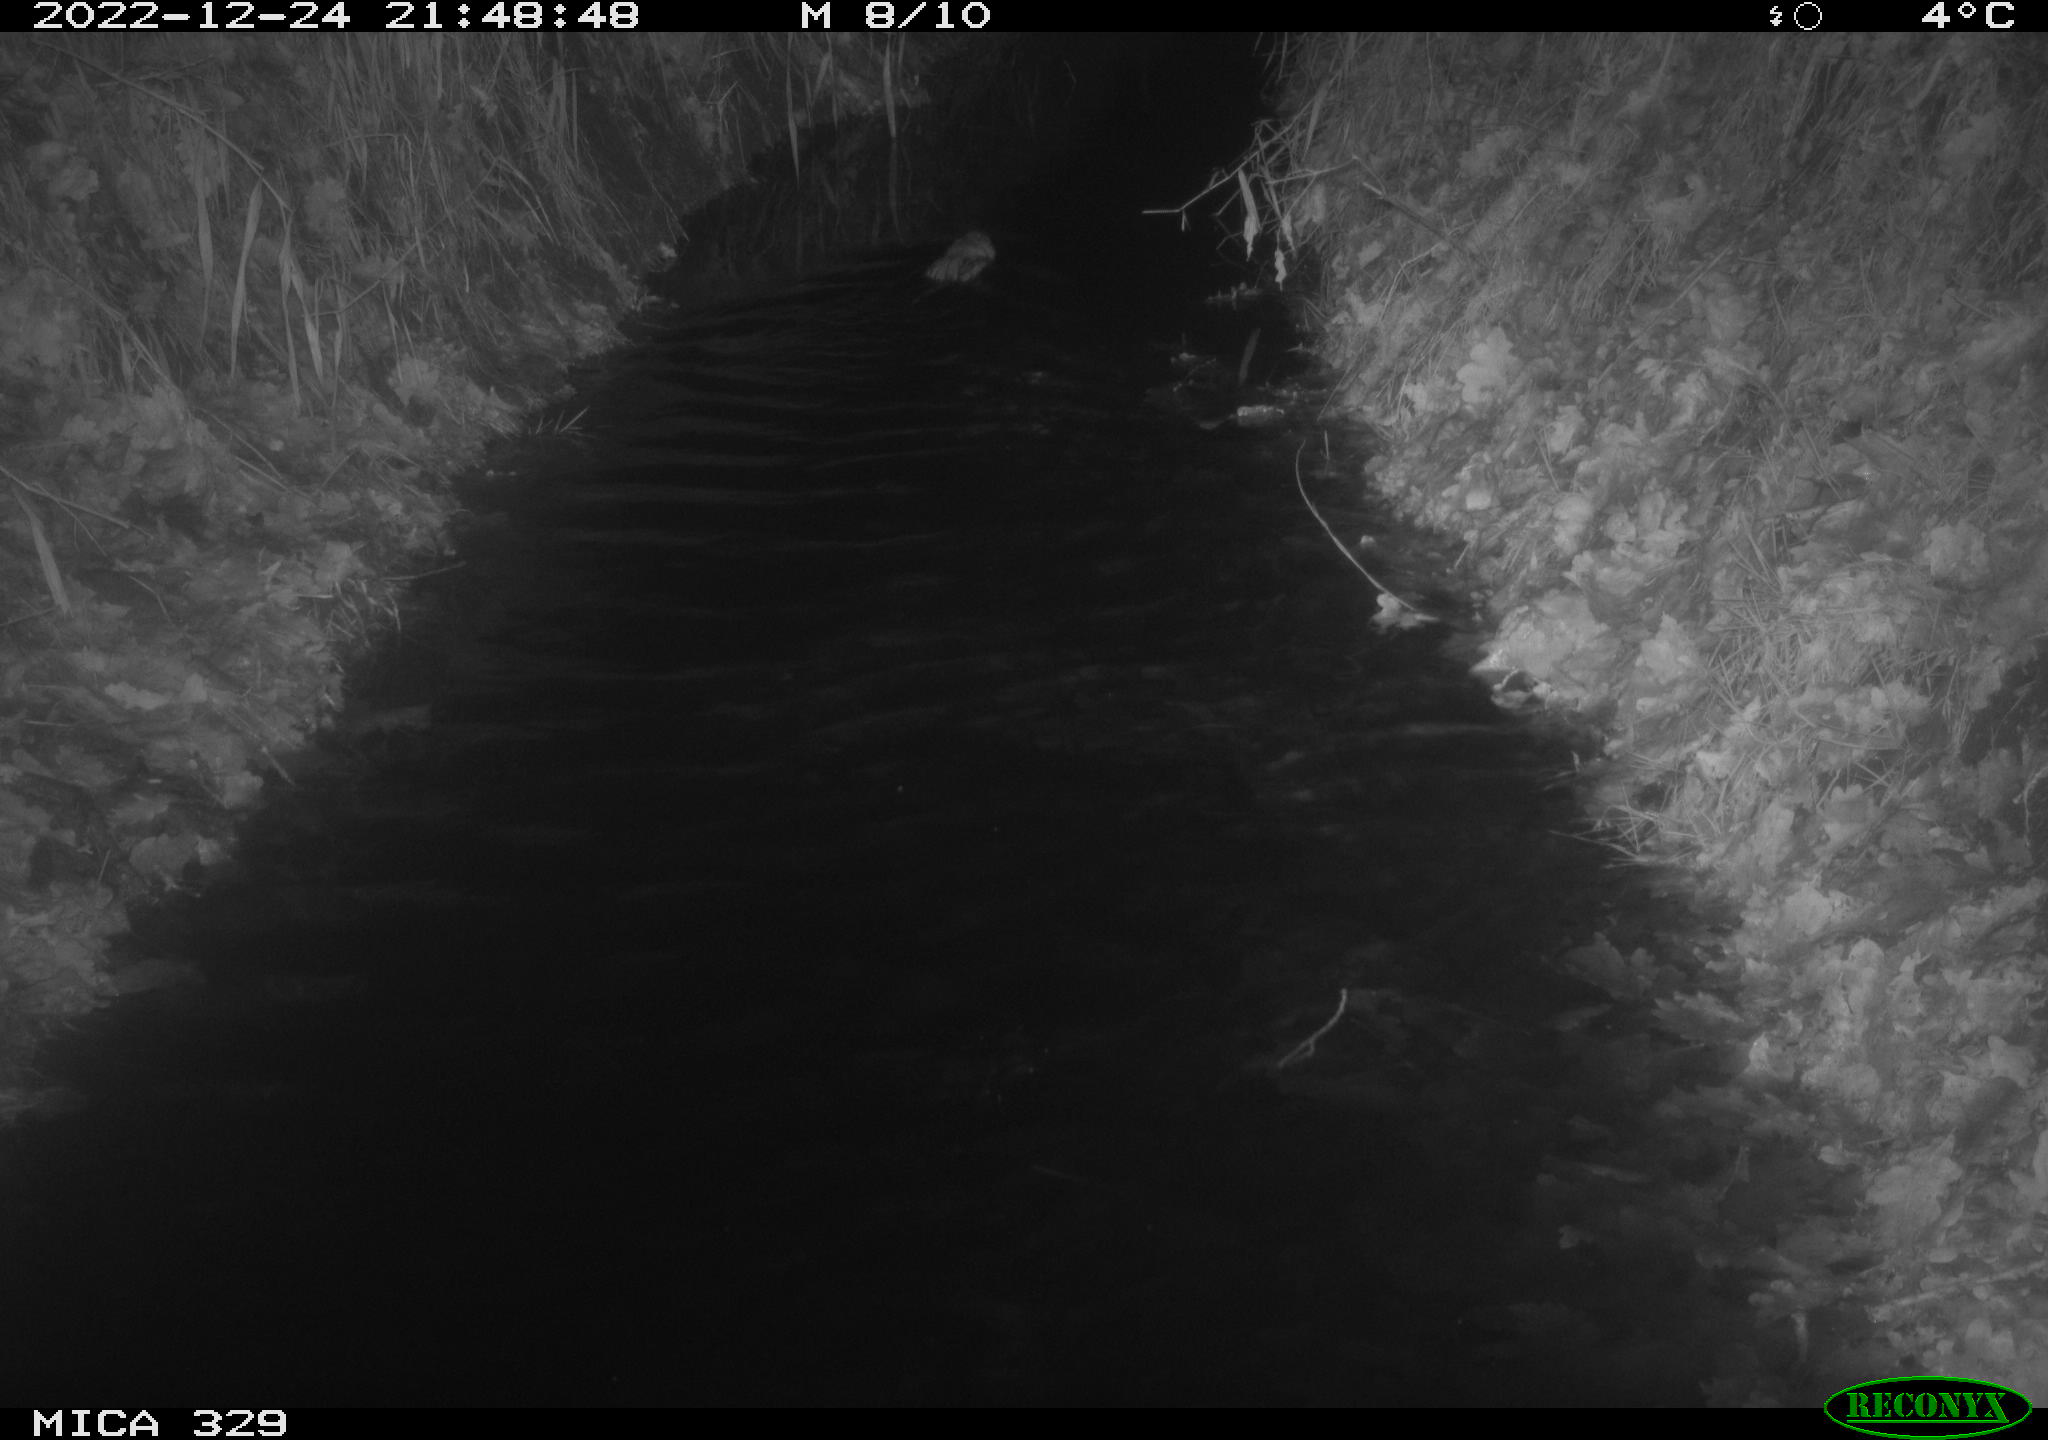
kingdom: Animalia
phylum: Chordata
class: Mammalia
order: Rodentia
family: Cricetidae
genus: Ondatra
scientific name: Ondatra zibethicus
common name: Muskrat
